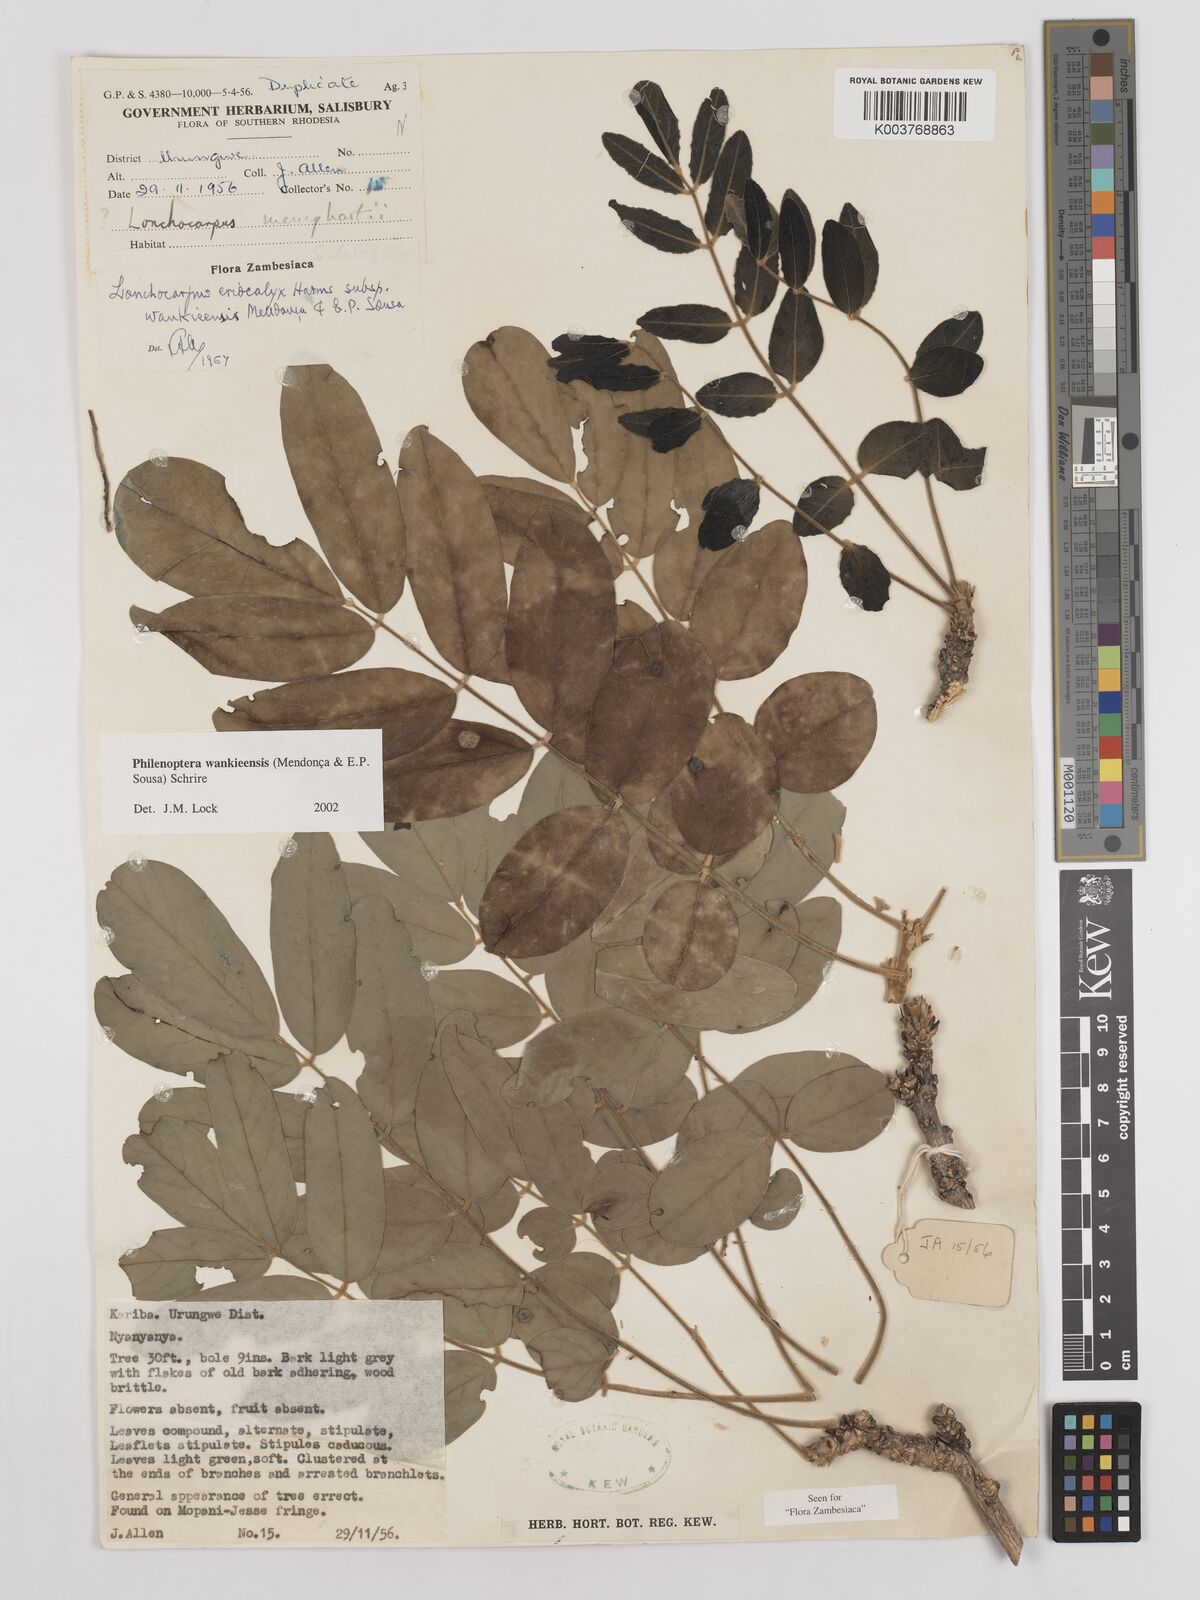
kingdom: Plantae
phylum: Tracheophyta
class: Magnoliopsida
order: Fabales
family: Fabaceae
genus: Philenoptera
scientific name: Philenoptera wankieensis
